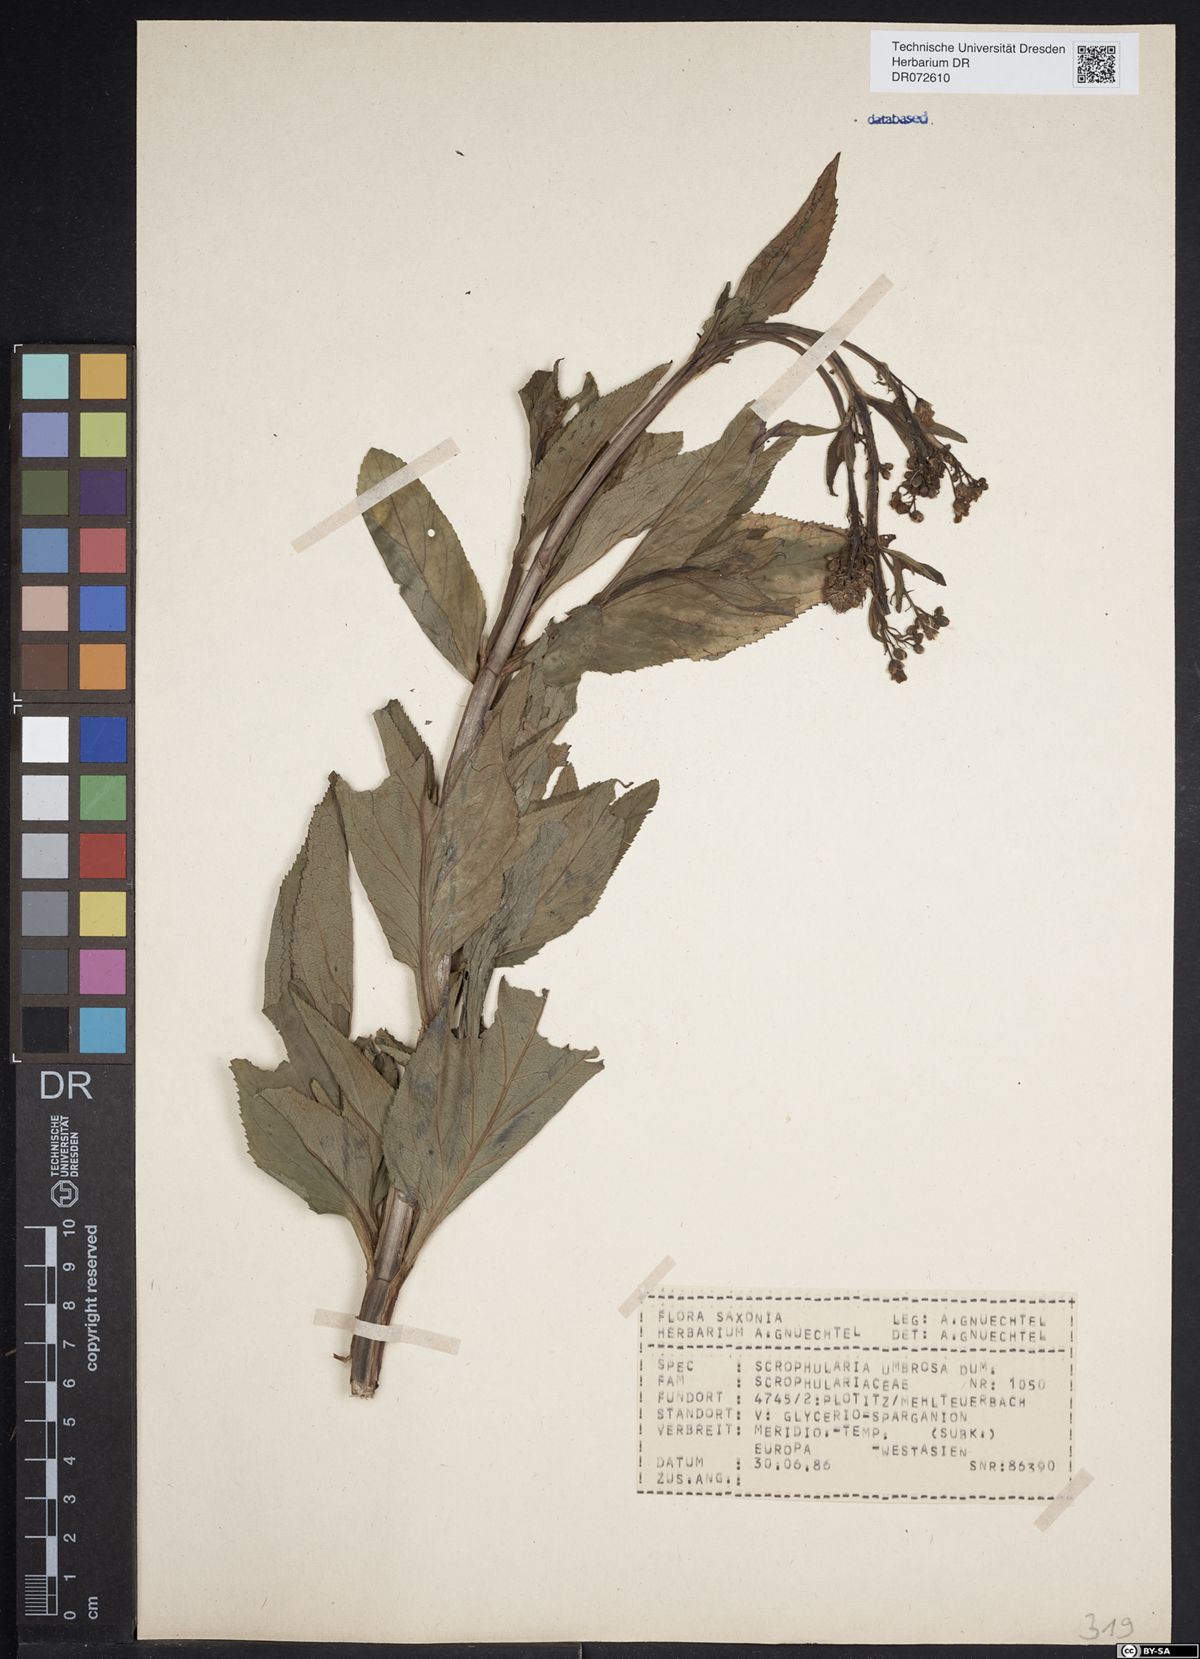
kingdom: Plantae
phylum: Tracheophyta
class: Magnoliopsida
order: Lamiales
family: Scrophulariaceae
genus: Scrophularia
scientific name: Scrophularia umbrosa
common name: Green figwort
